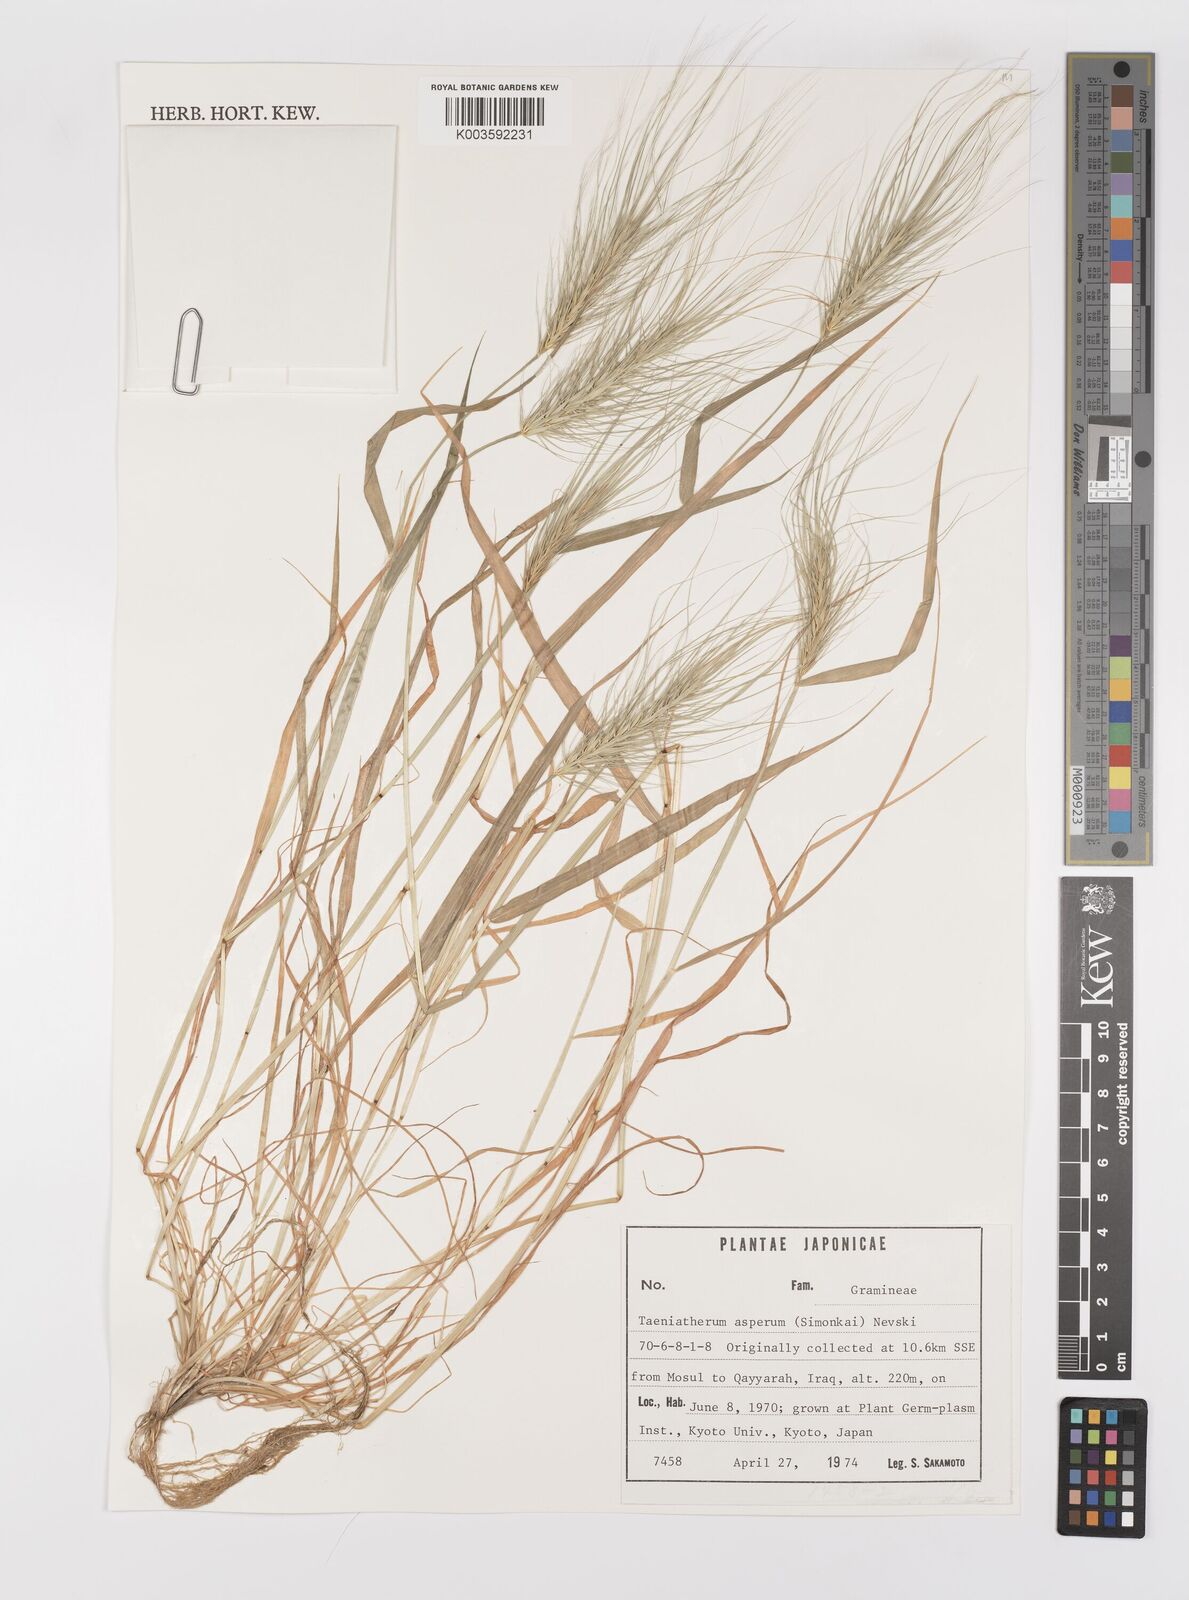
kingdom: Plantae
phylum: Tracheophyta
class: Liliopsida
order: Poales
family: Poaceae
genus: Taeniatherum
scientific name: Taeniatherum caput-medusae
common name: Medusahead
